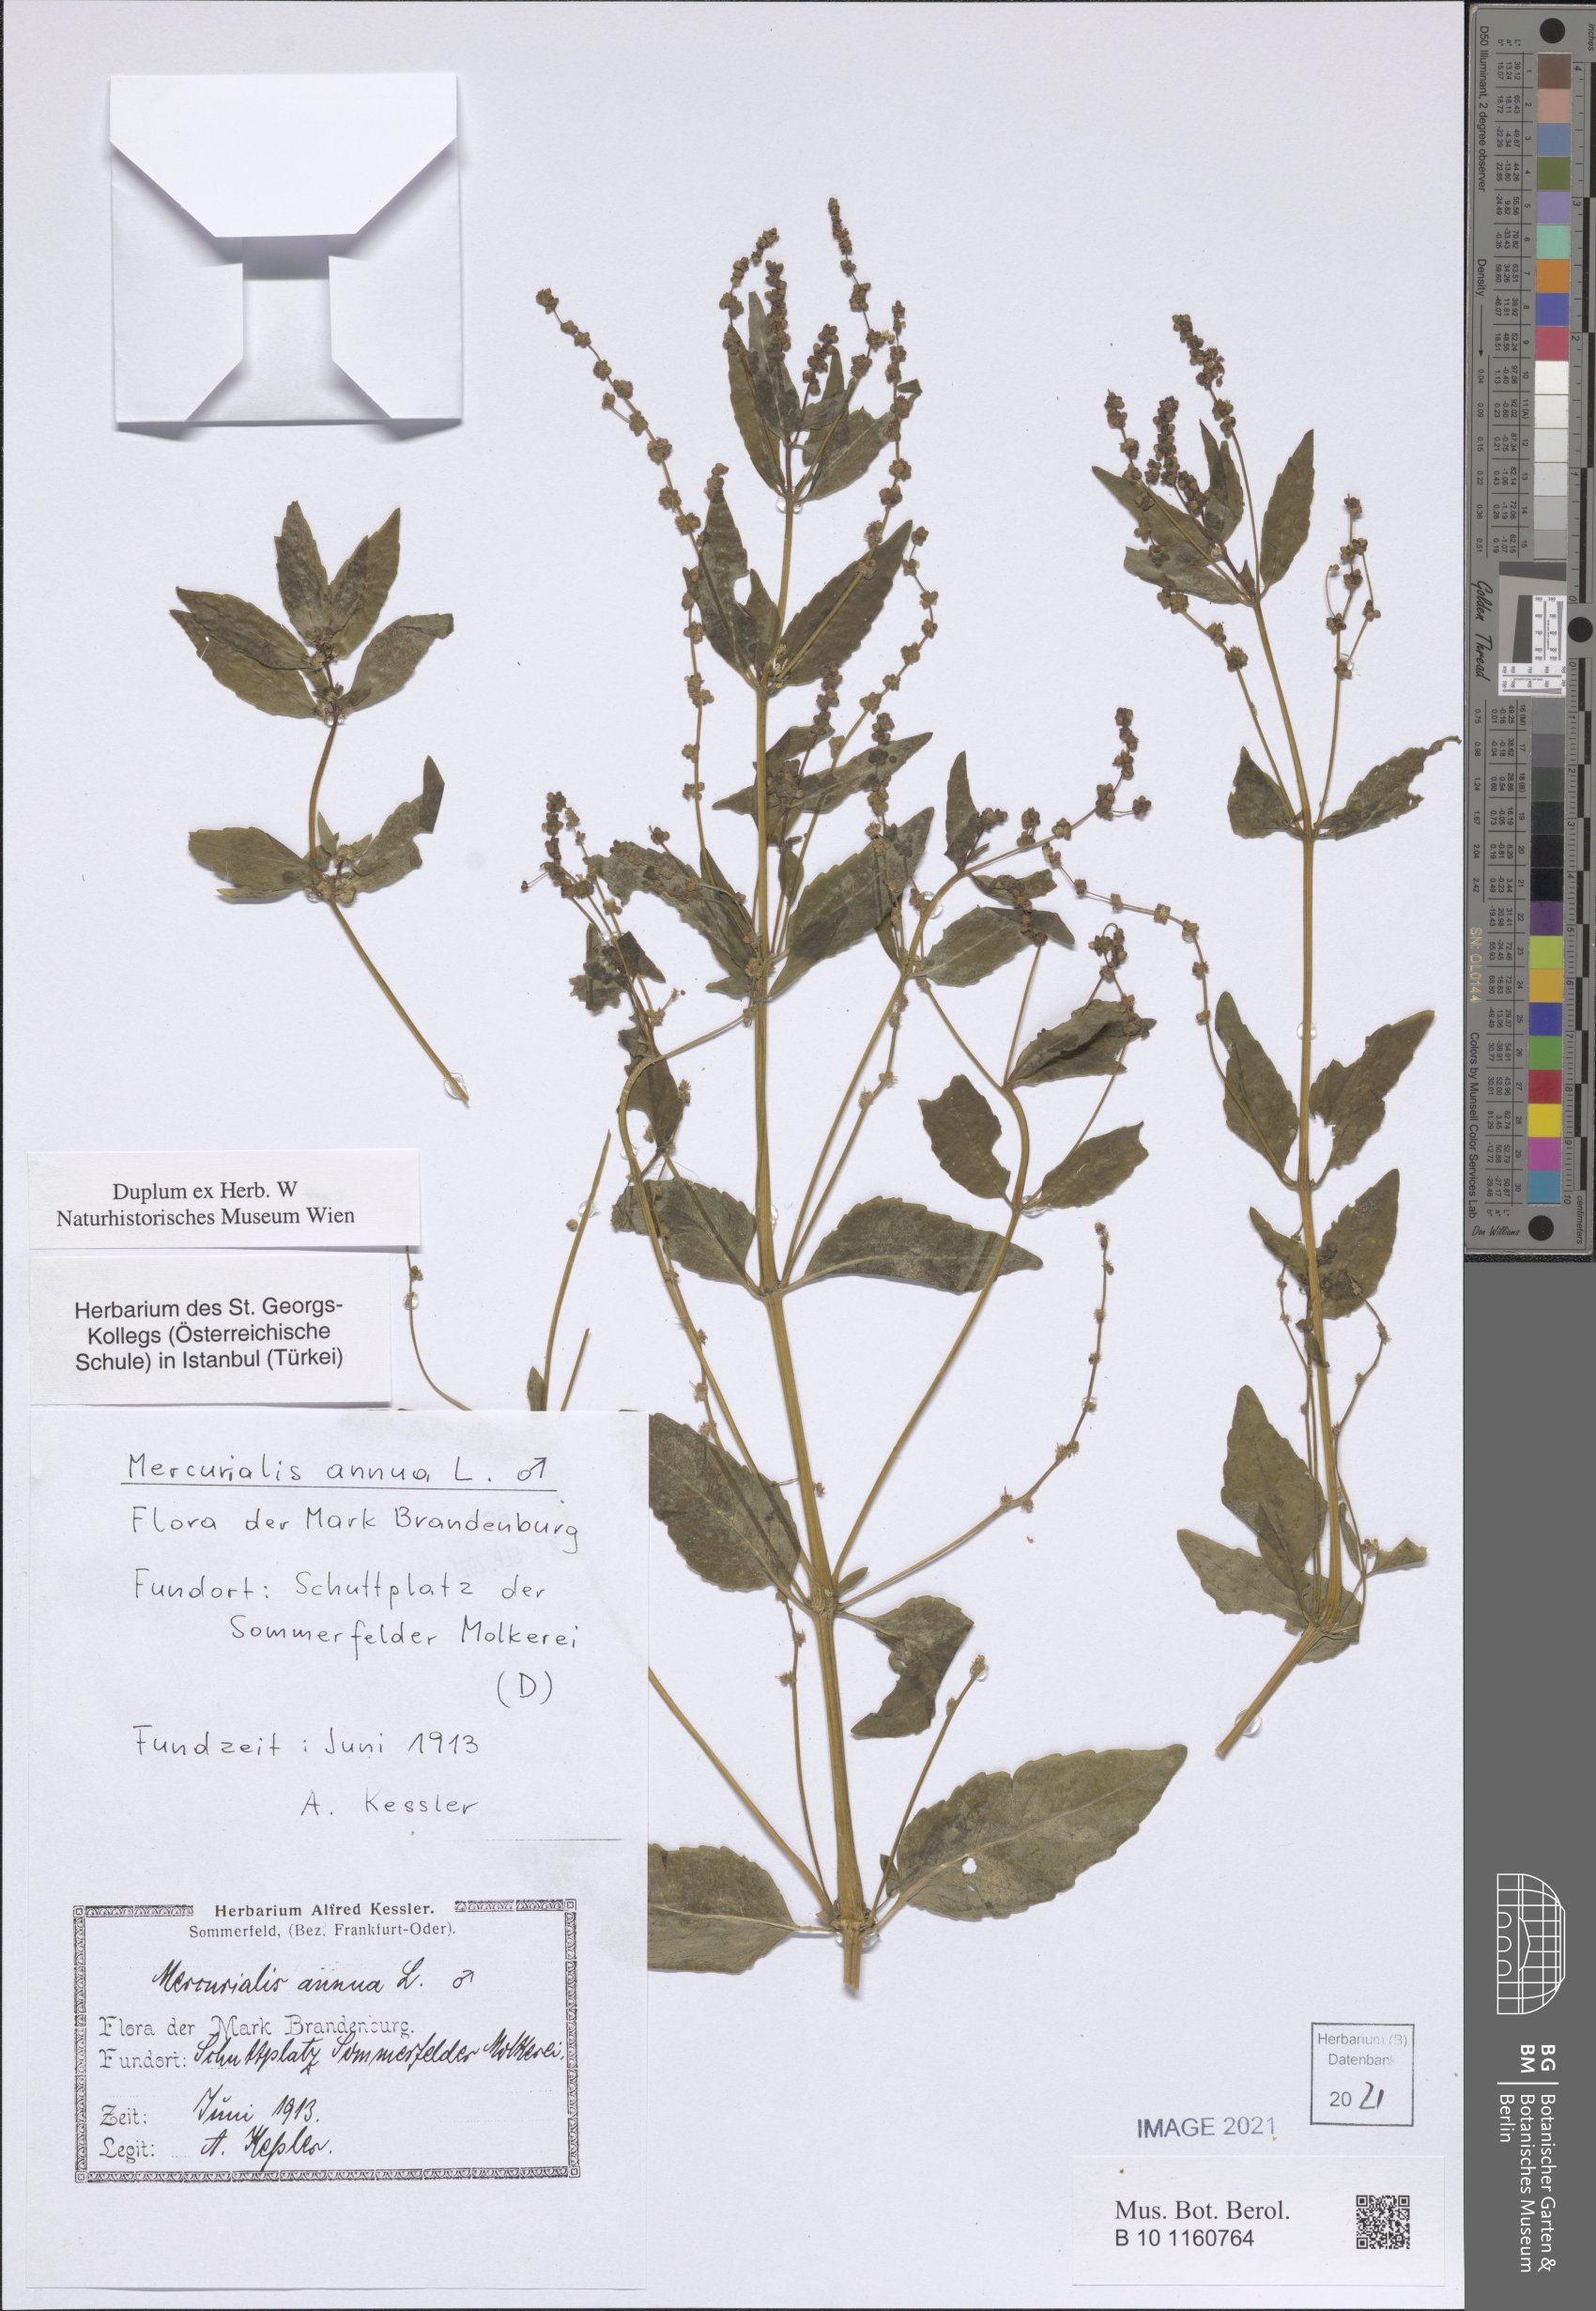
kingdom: Plantae
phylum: Tracheophyta
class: Magnoliopsida
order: Malpighiales
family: Euphorbiaceae
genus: Mercurialis
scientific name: Mercurialis annua
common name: Annual mercury
